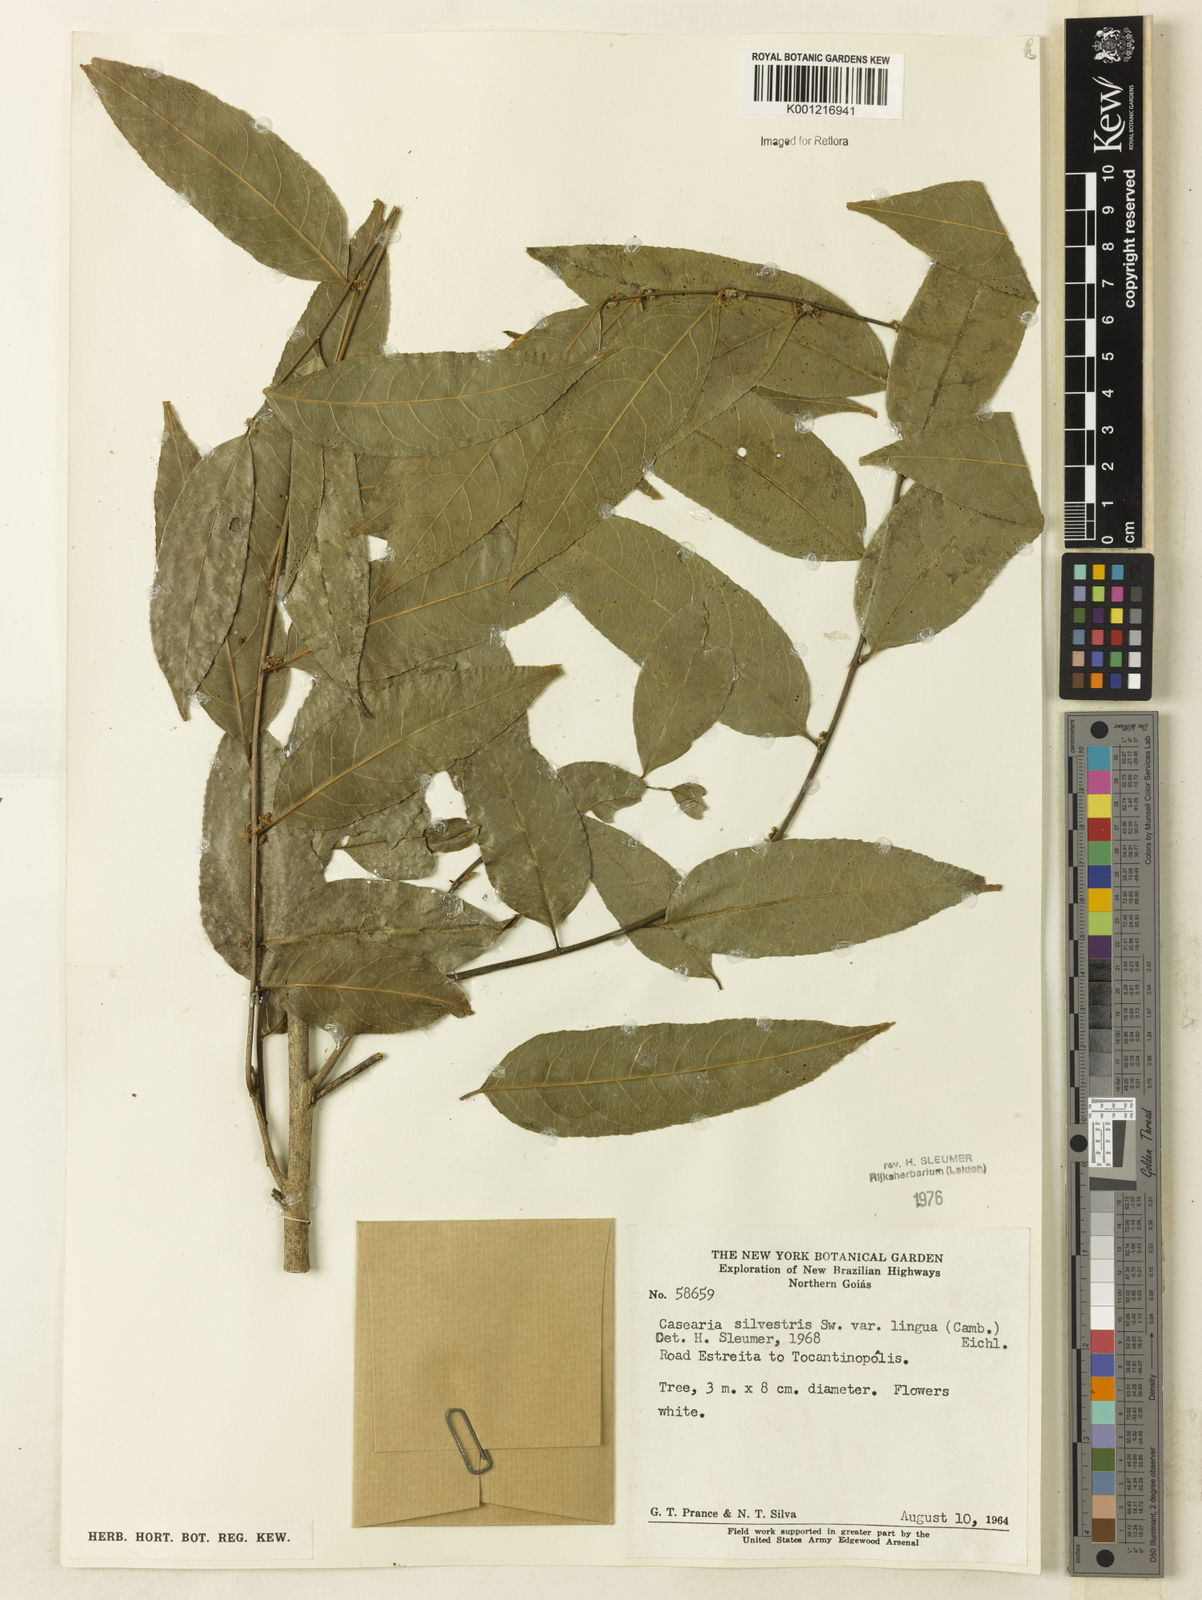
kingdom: Plantae
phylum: Tracheophyta
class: Magnoliopsida
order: Malpighiales
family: Salicaceae
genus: Casearia
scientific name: Casearia sylvestris
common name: Wild sage
